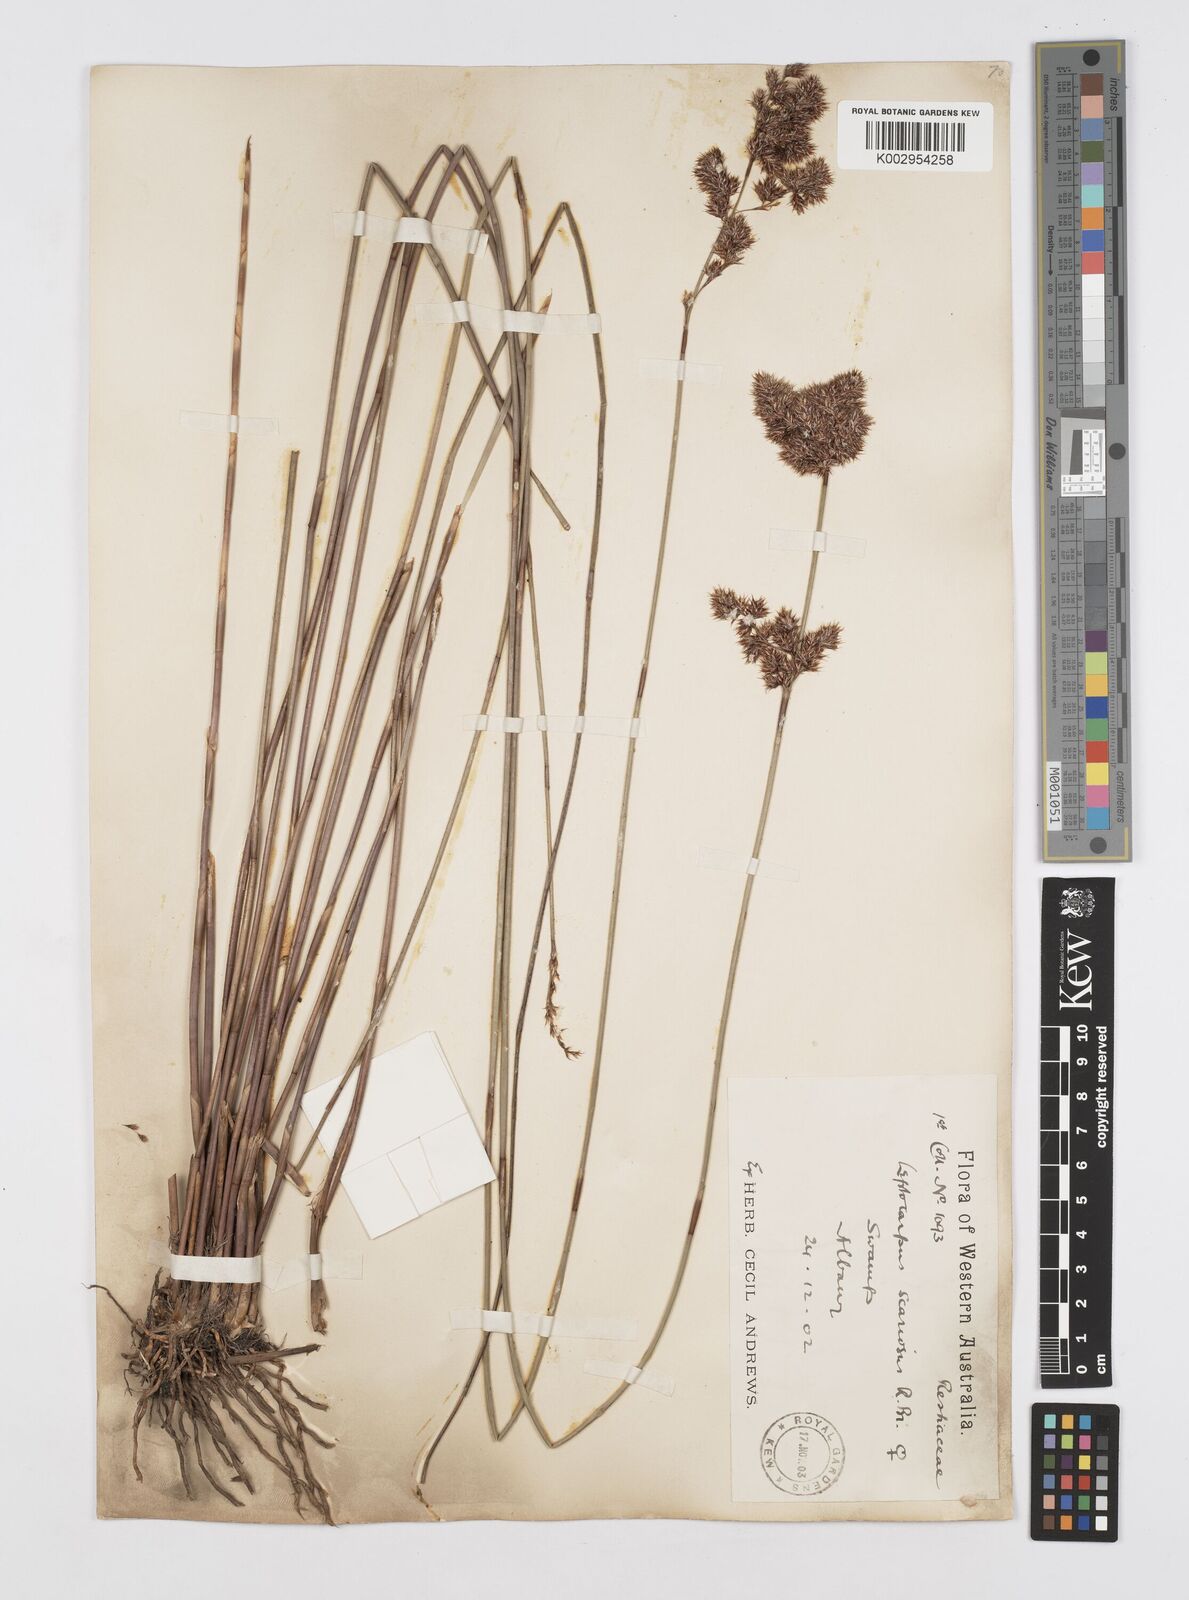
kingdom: Plantae
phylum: Tracheophyta
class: Liliopsida
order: Poales
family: Restionaceae
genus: Leptocarpus
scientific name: Leptocarpus scariosus
